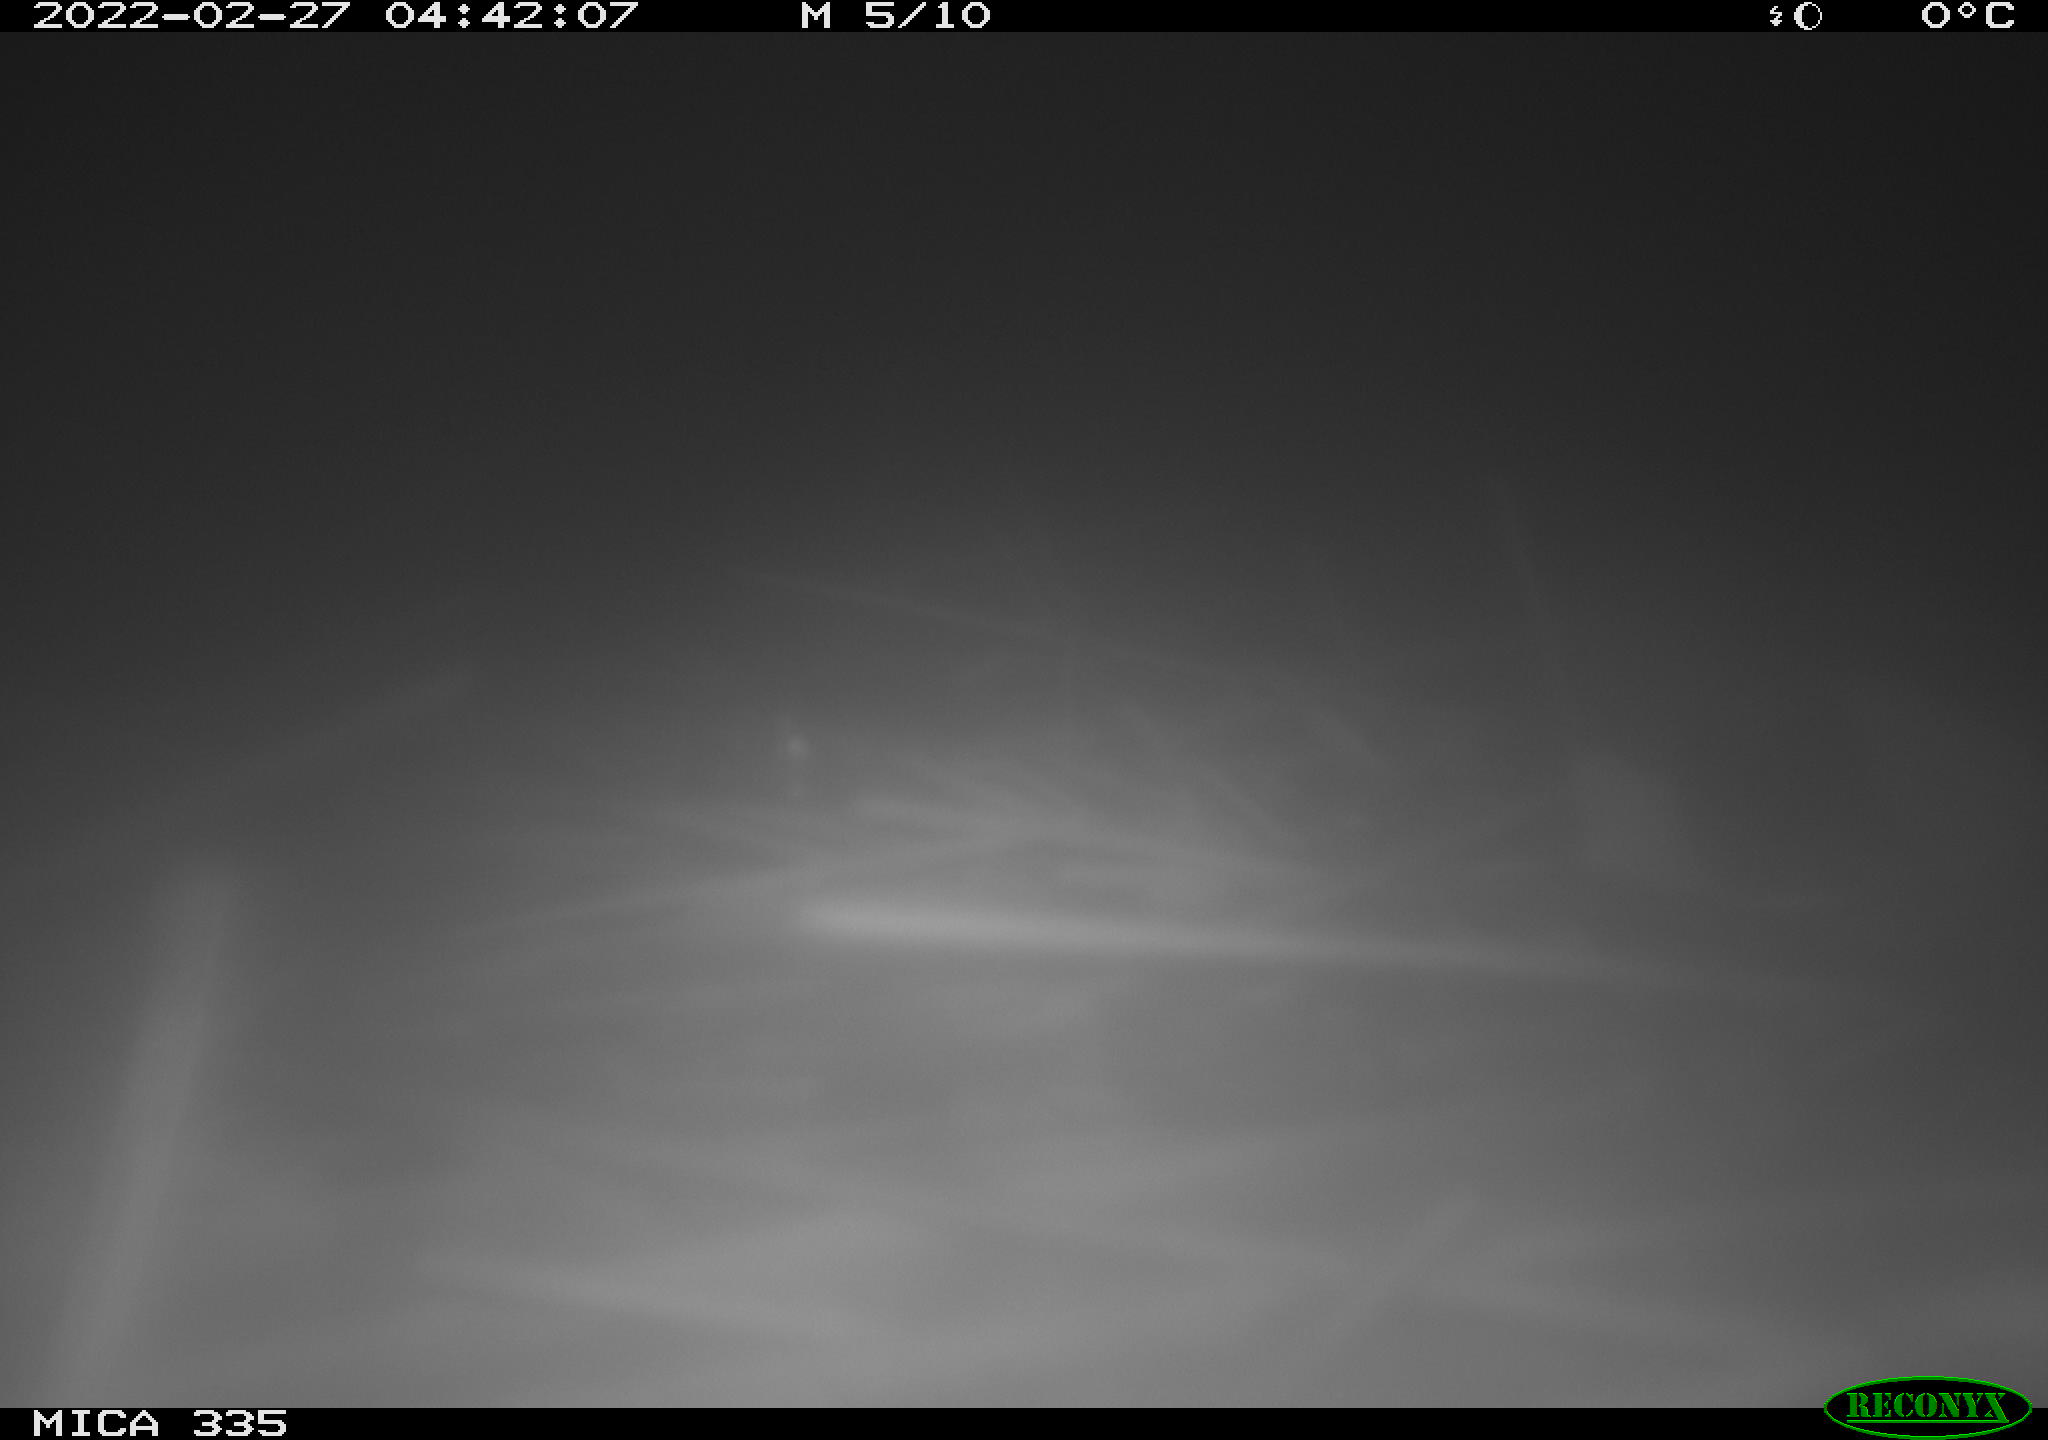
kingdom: Animalia
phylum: Chordata
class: Mammalia
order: Rodentia
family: Muridae
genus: Rattus
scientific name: Rattus norvegicus
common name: Brown rat
